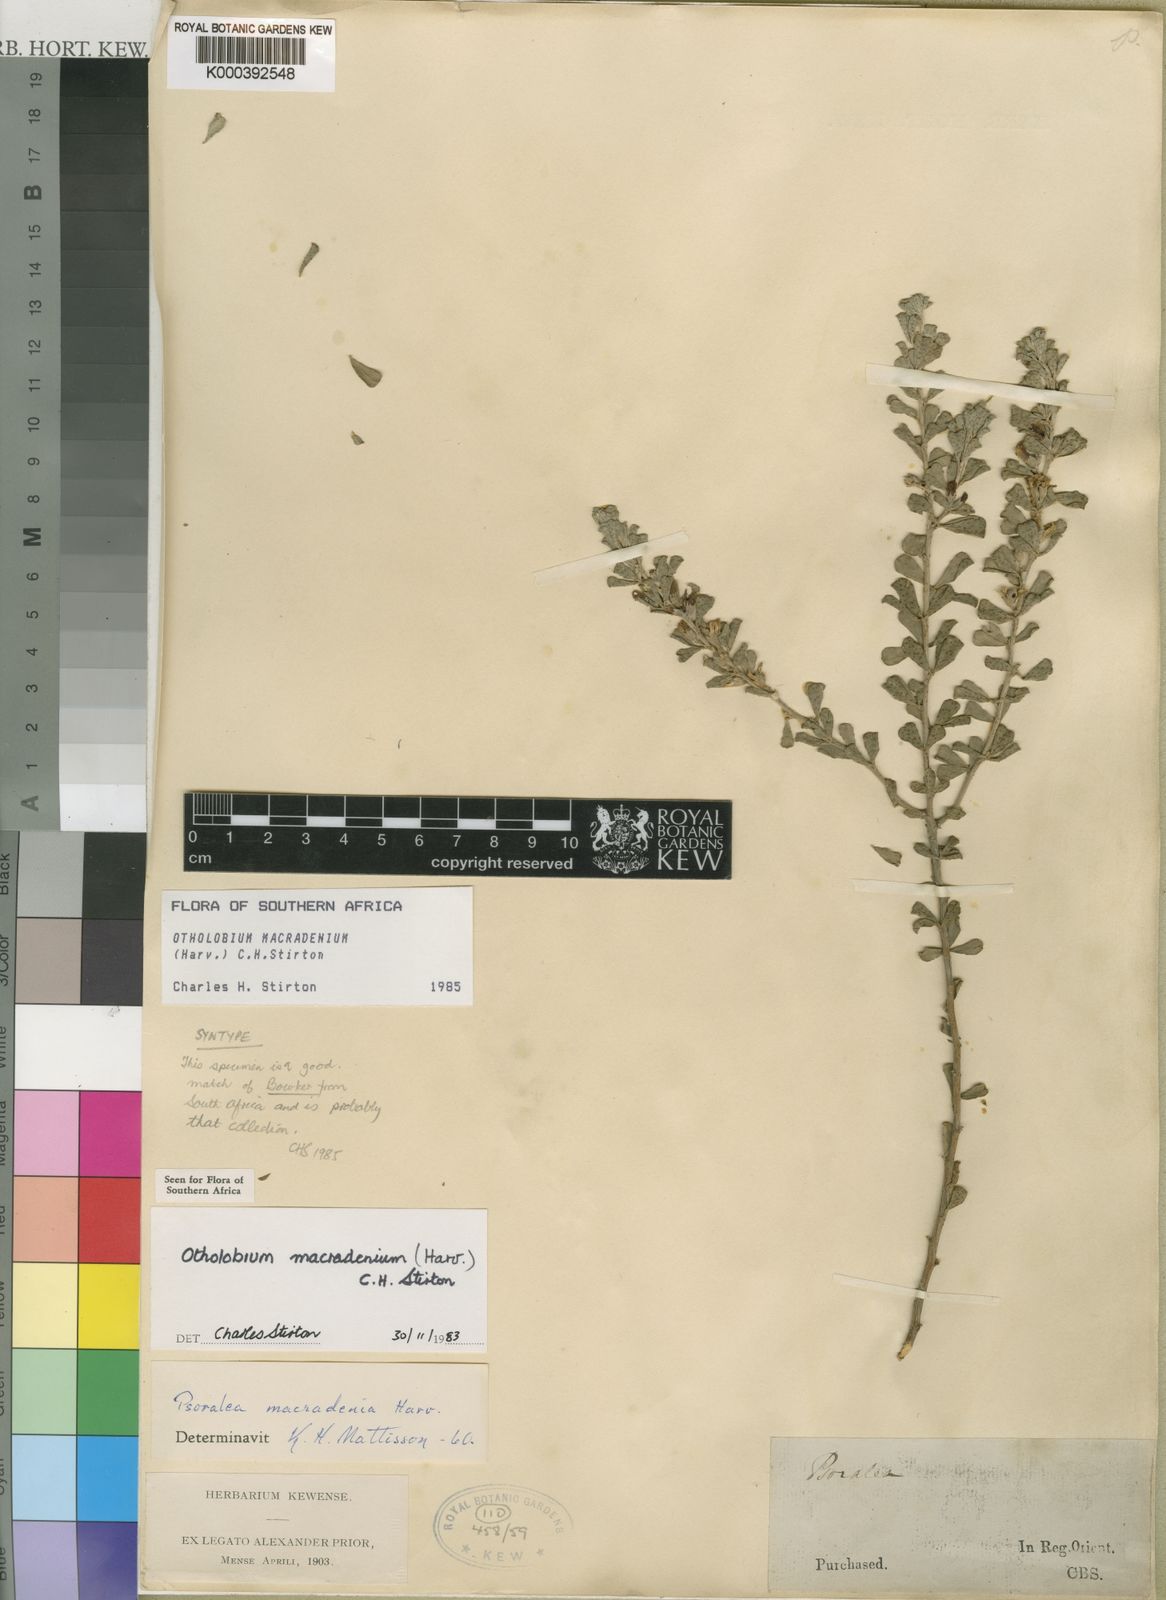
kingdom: Plantae
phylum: Tracheophyta
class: Magnoliopsida
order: Fabales
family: Fabaceae
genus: Psoralea
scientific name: Psoralea velutina
